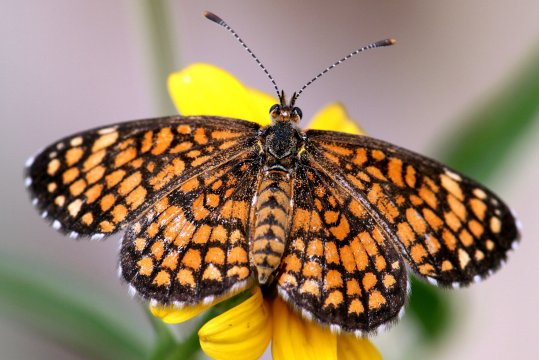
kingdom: Animalia
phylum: Arthropoda
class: Insecta
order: Lepidoptera
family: Nymphalidae
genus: Texola
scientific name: Texola
